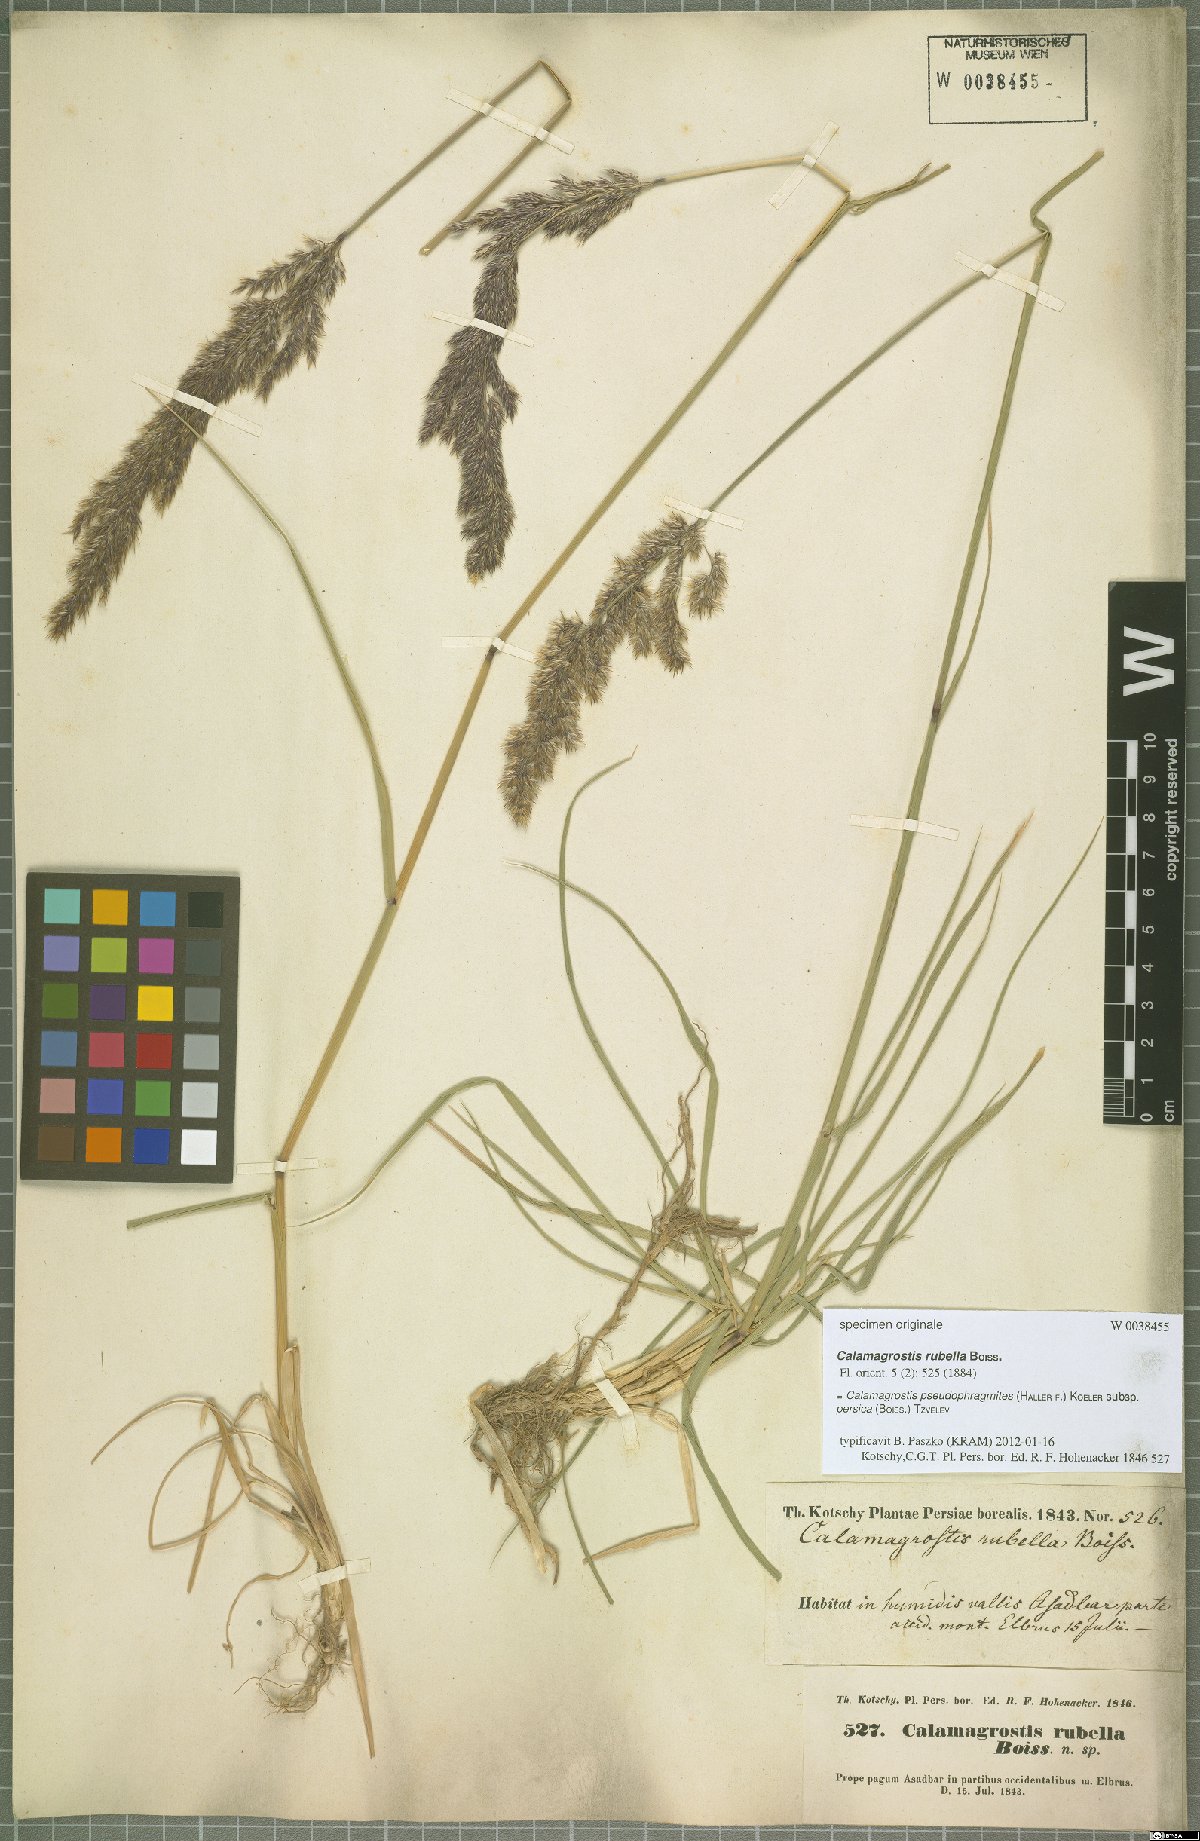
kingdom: Plantae
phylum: Tracheophyta
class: Liliopsida
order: Poales
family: Poaceae
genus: Calamagrostis
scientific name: Calamagrostis pseudophragmites
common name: Coastal small-reed
